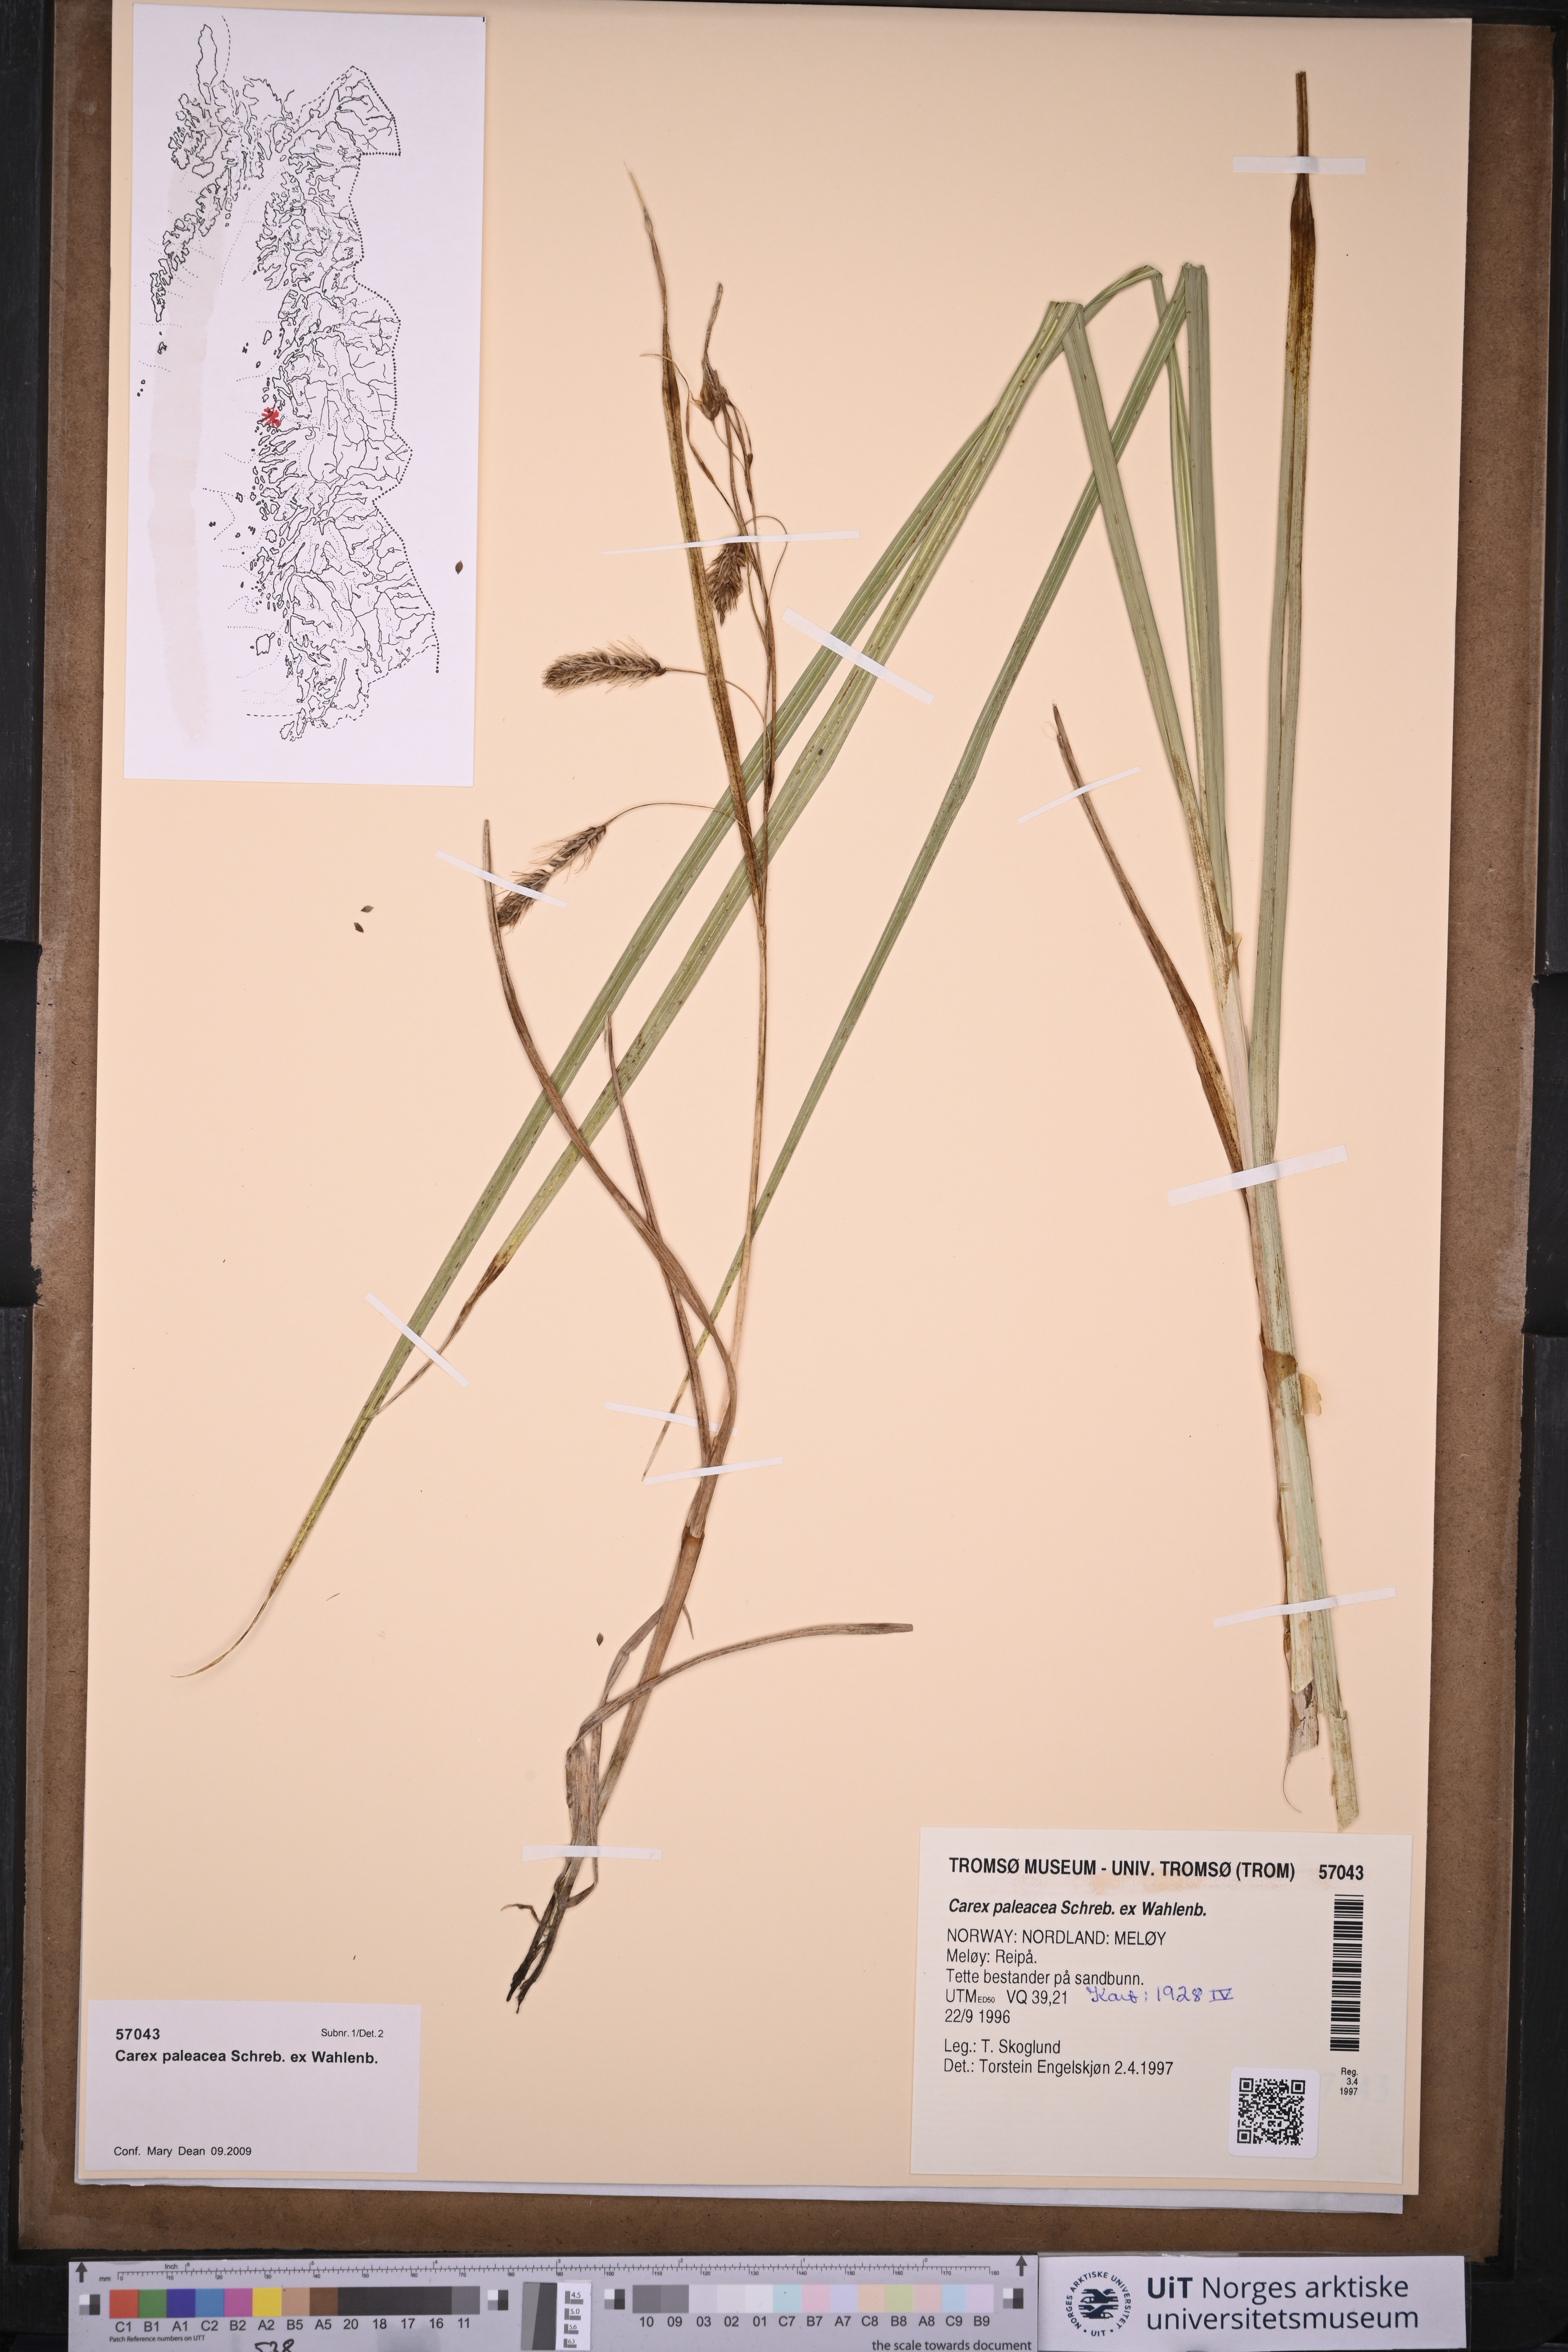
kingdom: Plantae
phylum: Tracheophyta
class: Liliopsida
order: Poales
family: Cyperaceae
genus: Carex
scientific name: Carex paleacea
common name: Chaffy sedge
